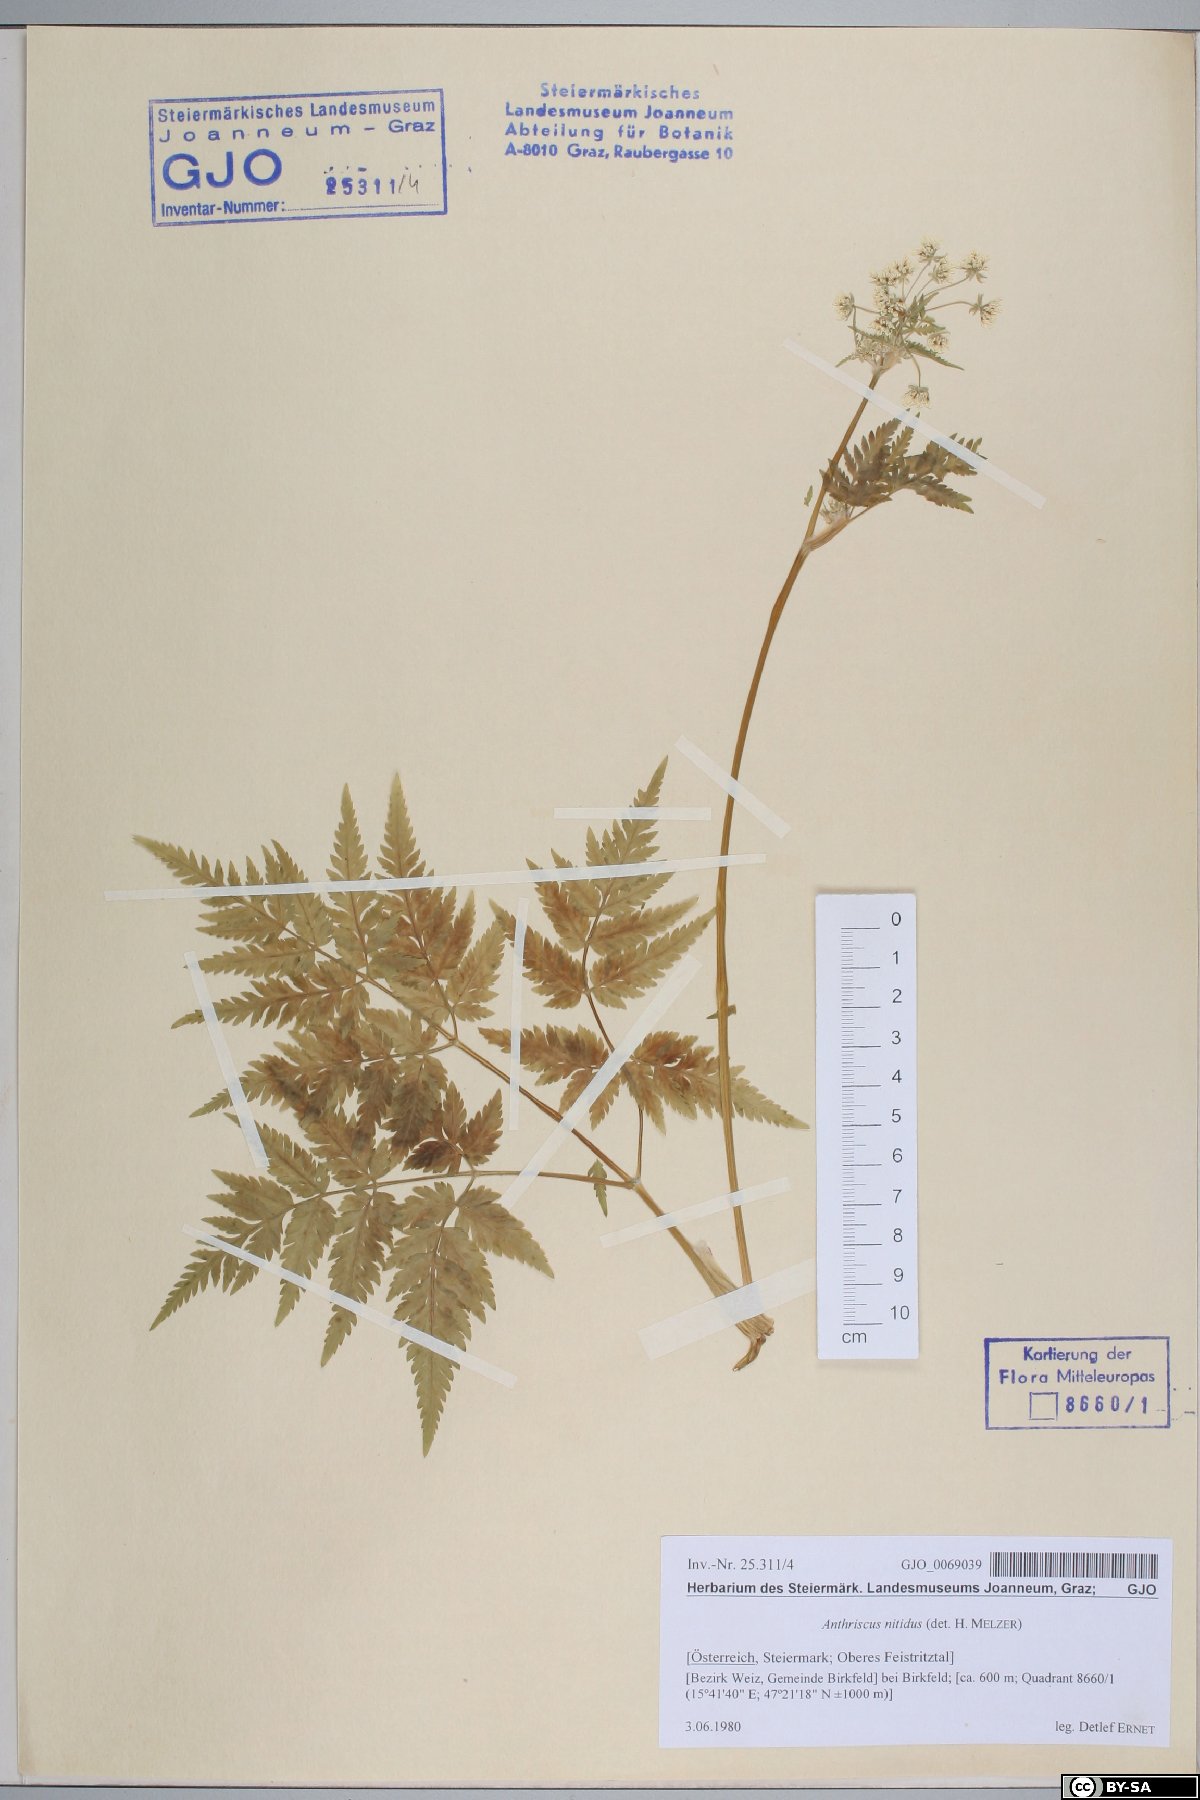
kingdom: Plantae
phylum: Tracheophyta
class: Magnoliopsida
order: Apiales
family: Apiaceae
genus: Anthriscus
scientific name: Anthriscus nitida
